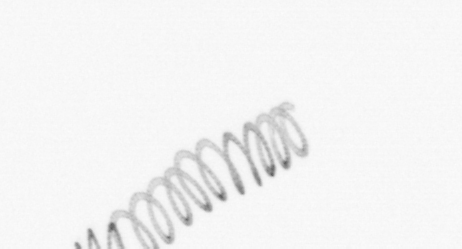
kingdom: Chromista
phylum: Ochrophyta
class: Bacillariophyceae
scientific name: Bacillariophyceae
